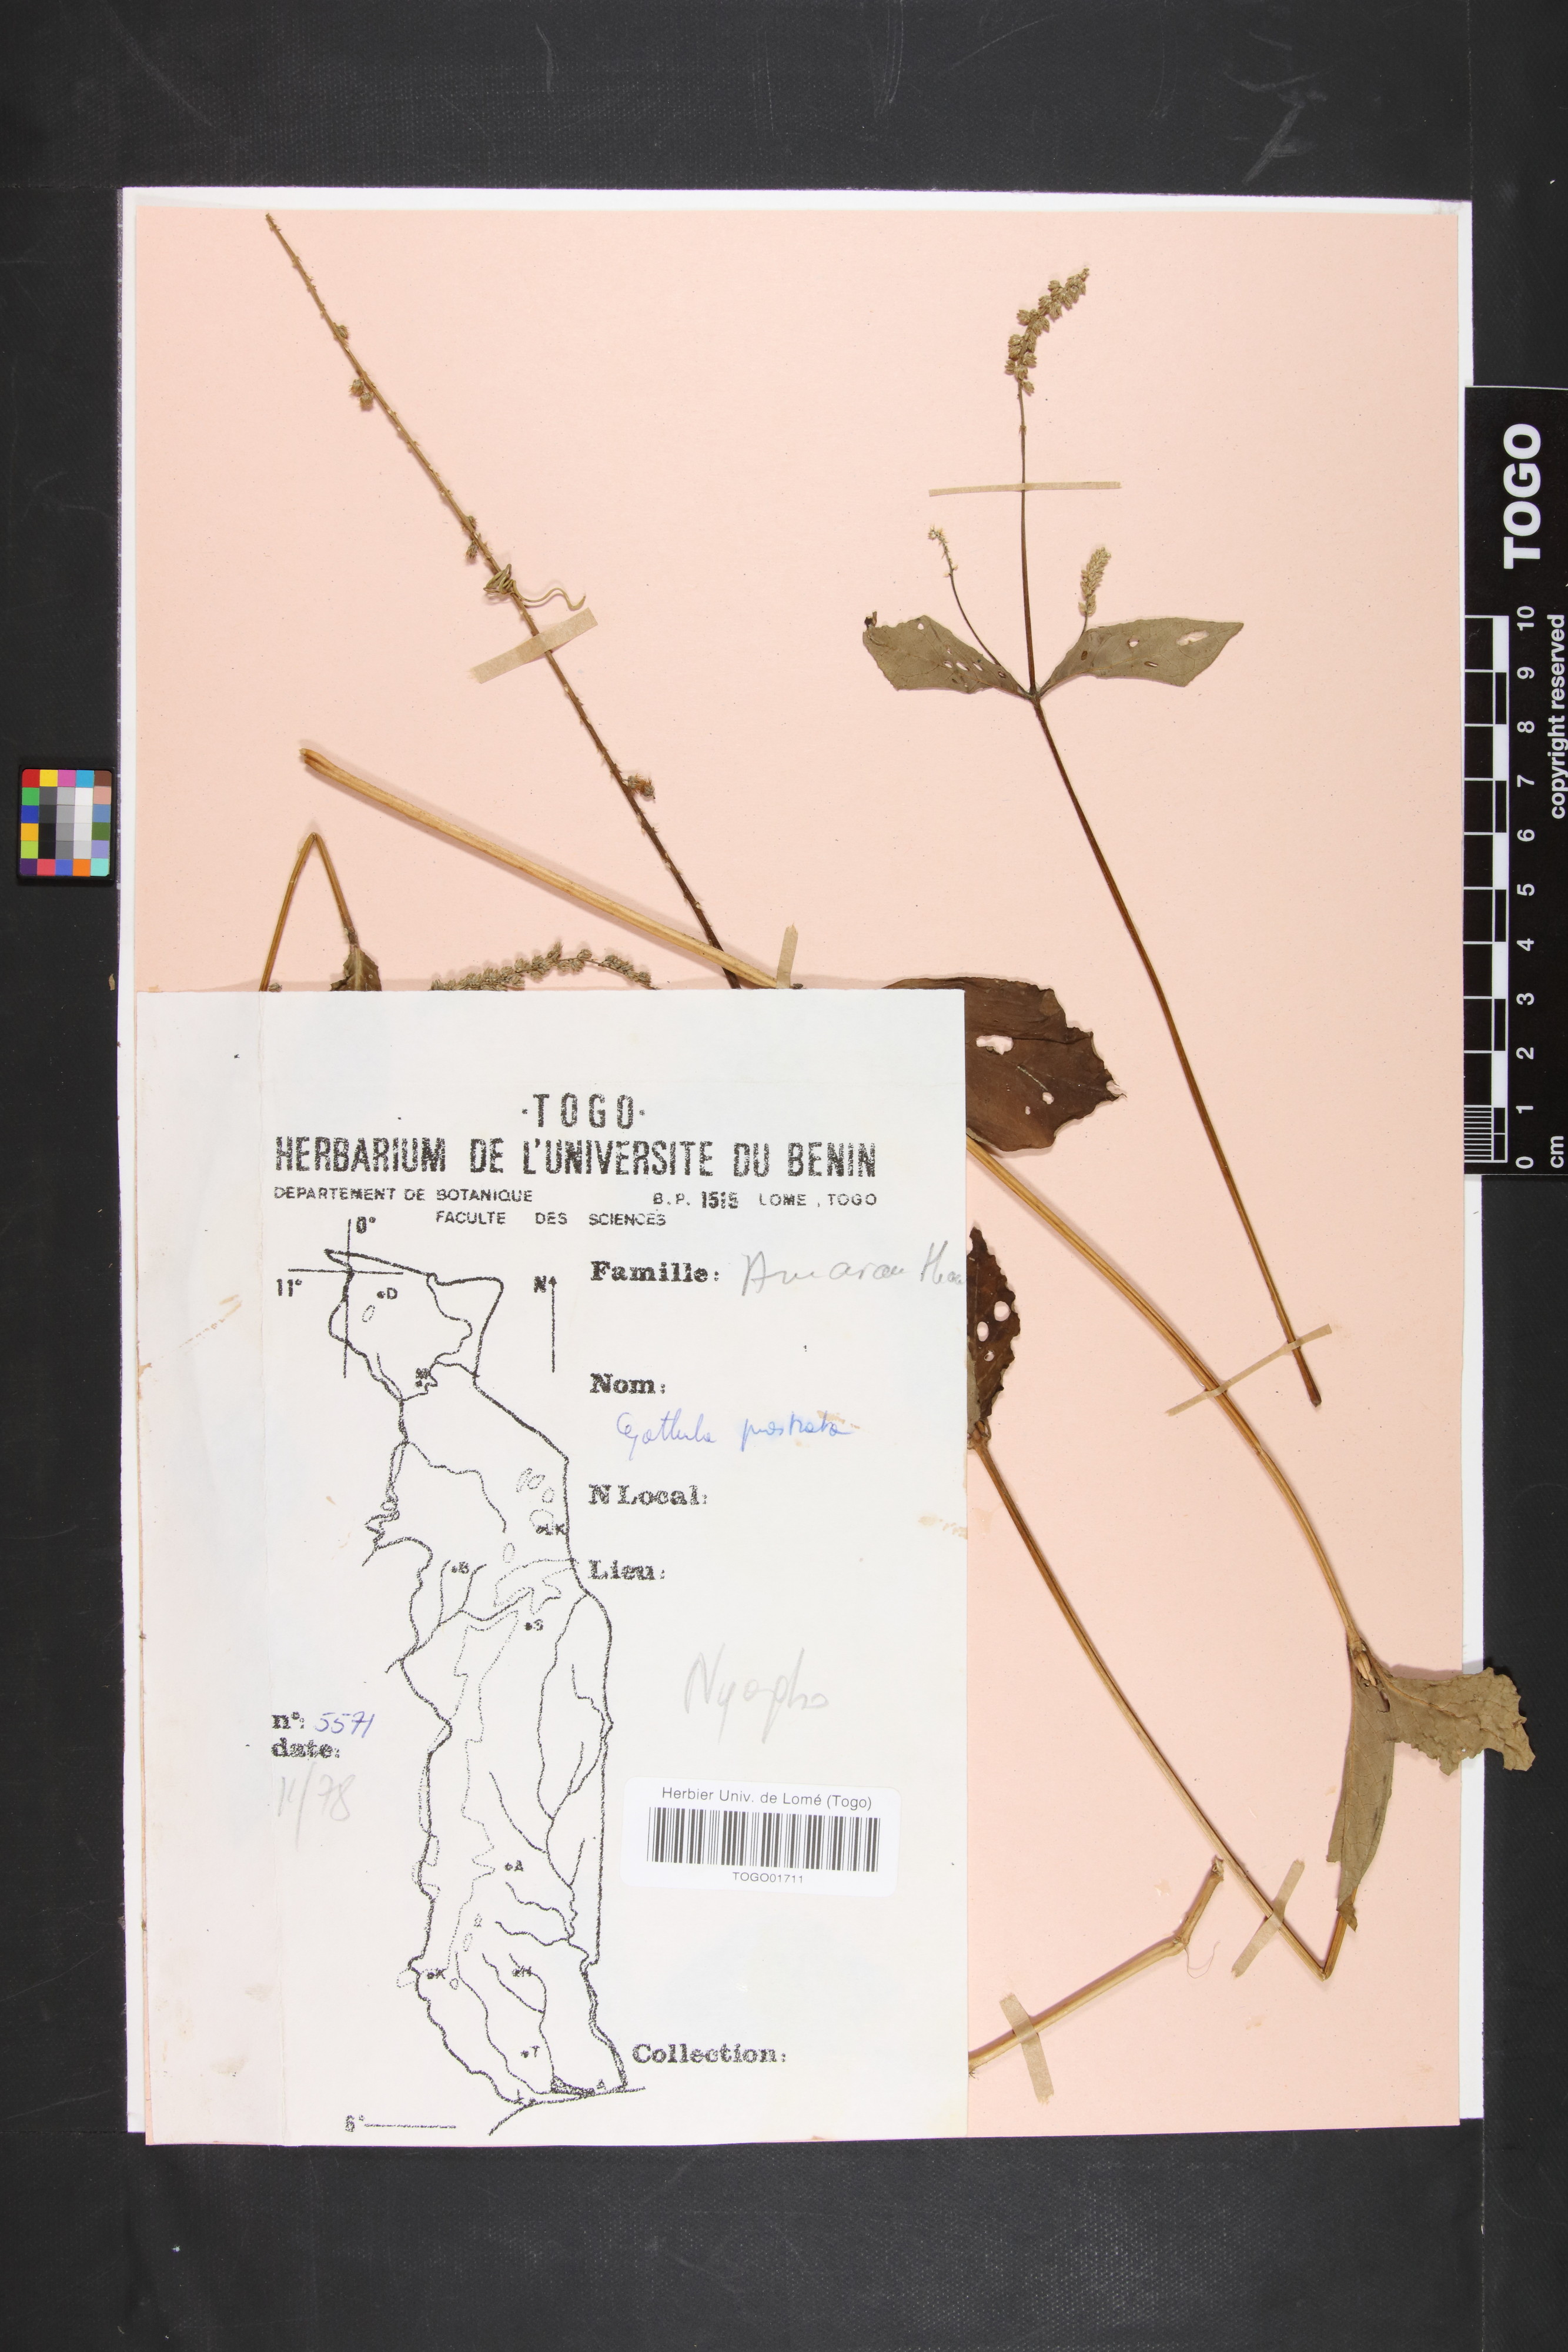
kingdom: Plantae
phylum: Tracheophyta
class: Magnoliopsida
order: Caryophyllales
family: Amaranthaceae
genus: Cyathula
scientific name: Cyathula prostrata
